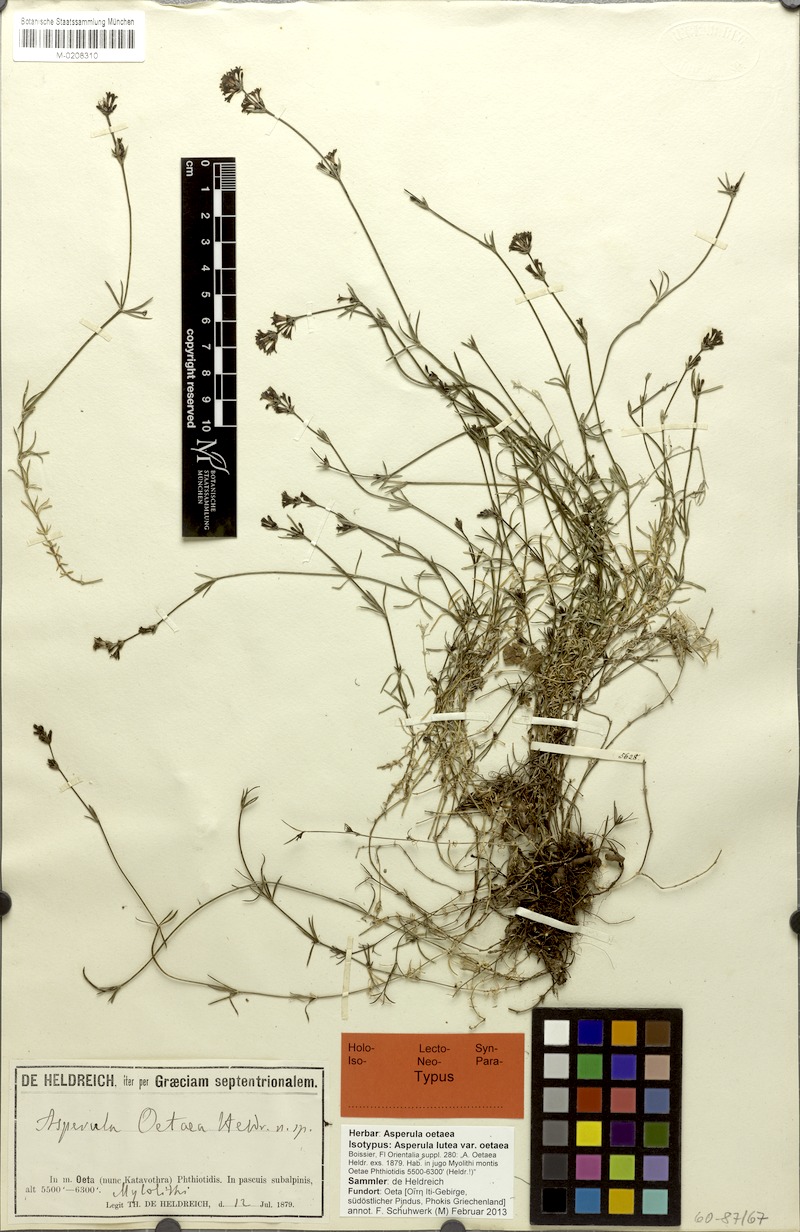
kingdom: Plantae
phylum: Tracheophyta
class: Magnoliopsida
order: Gentianales
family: Rubiaceae
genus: Cynanchica
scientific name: Cynanchica oetaea
